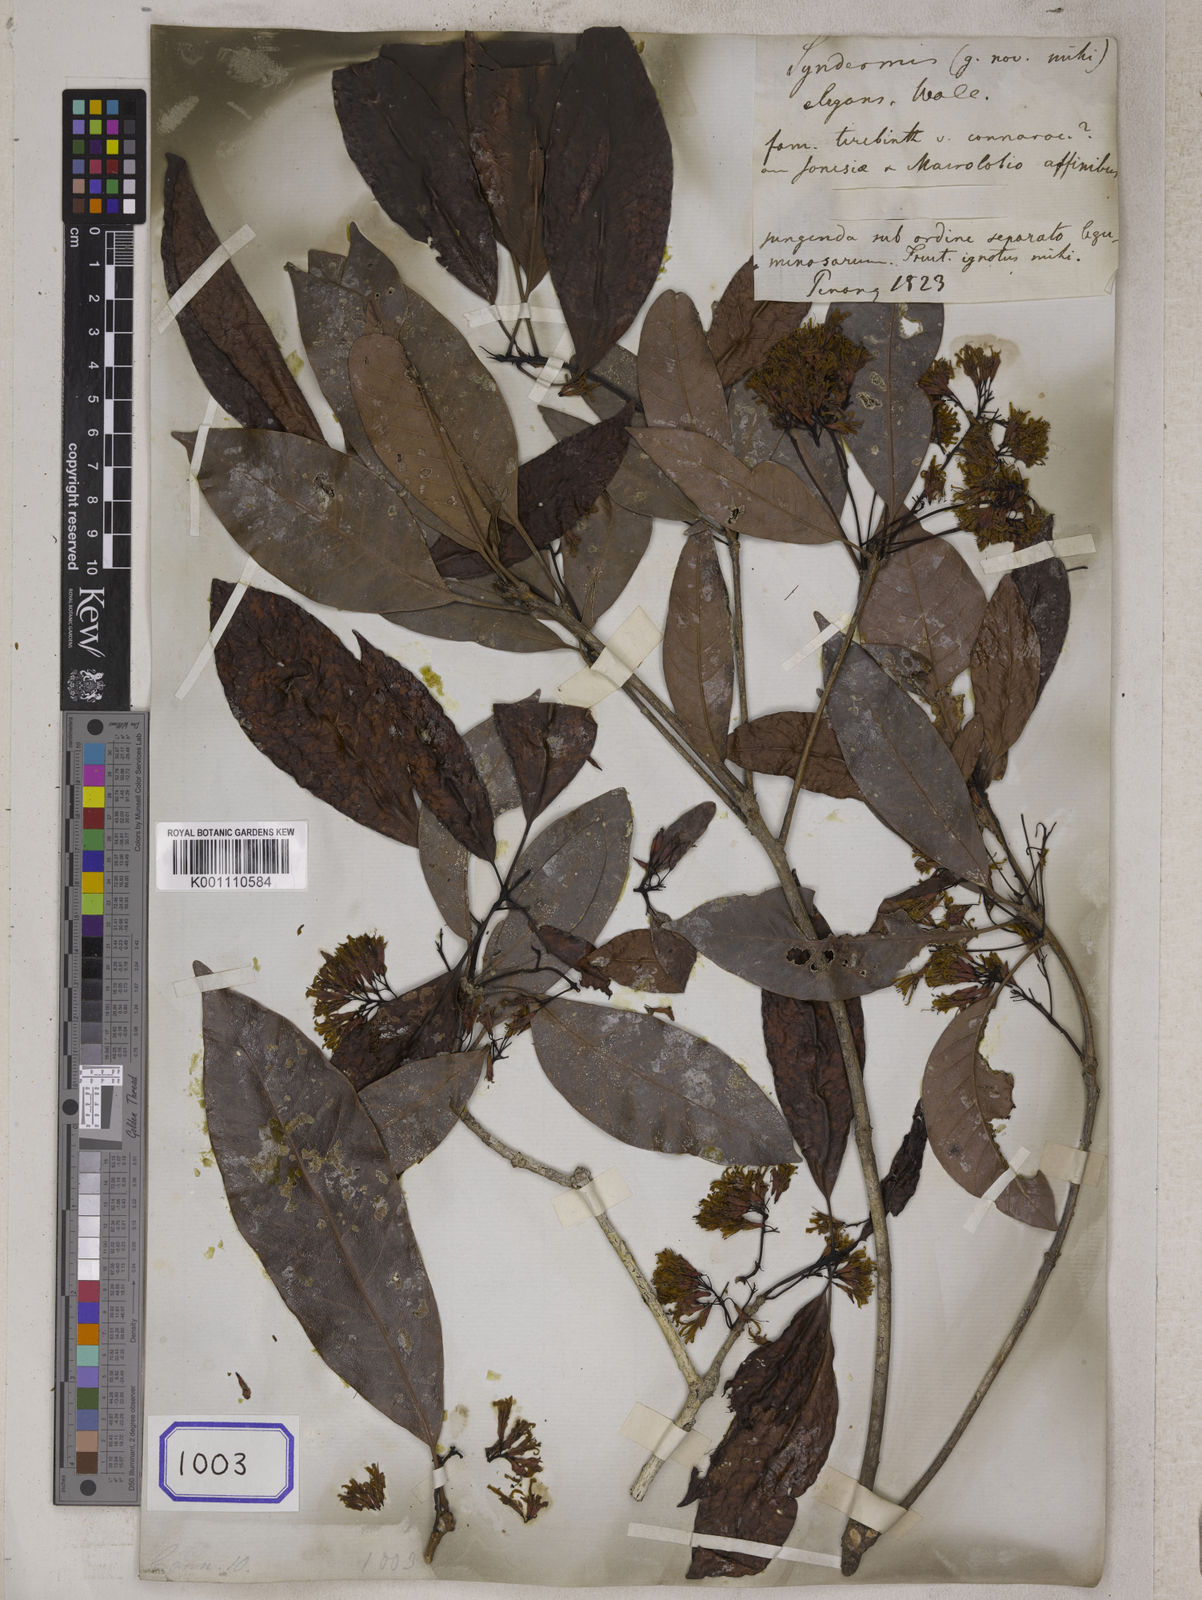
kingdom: Plantae
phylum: Tracheophyta
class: Magnoliopsida
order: Sapindales
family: Anacardiaceae
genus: Gluta
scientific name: Gluta elegans
